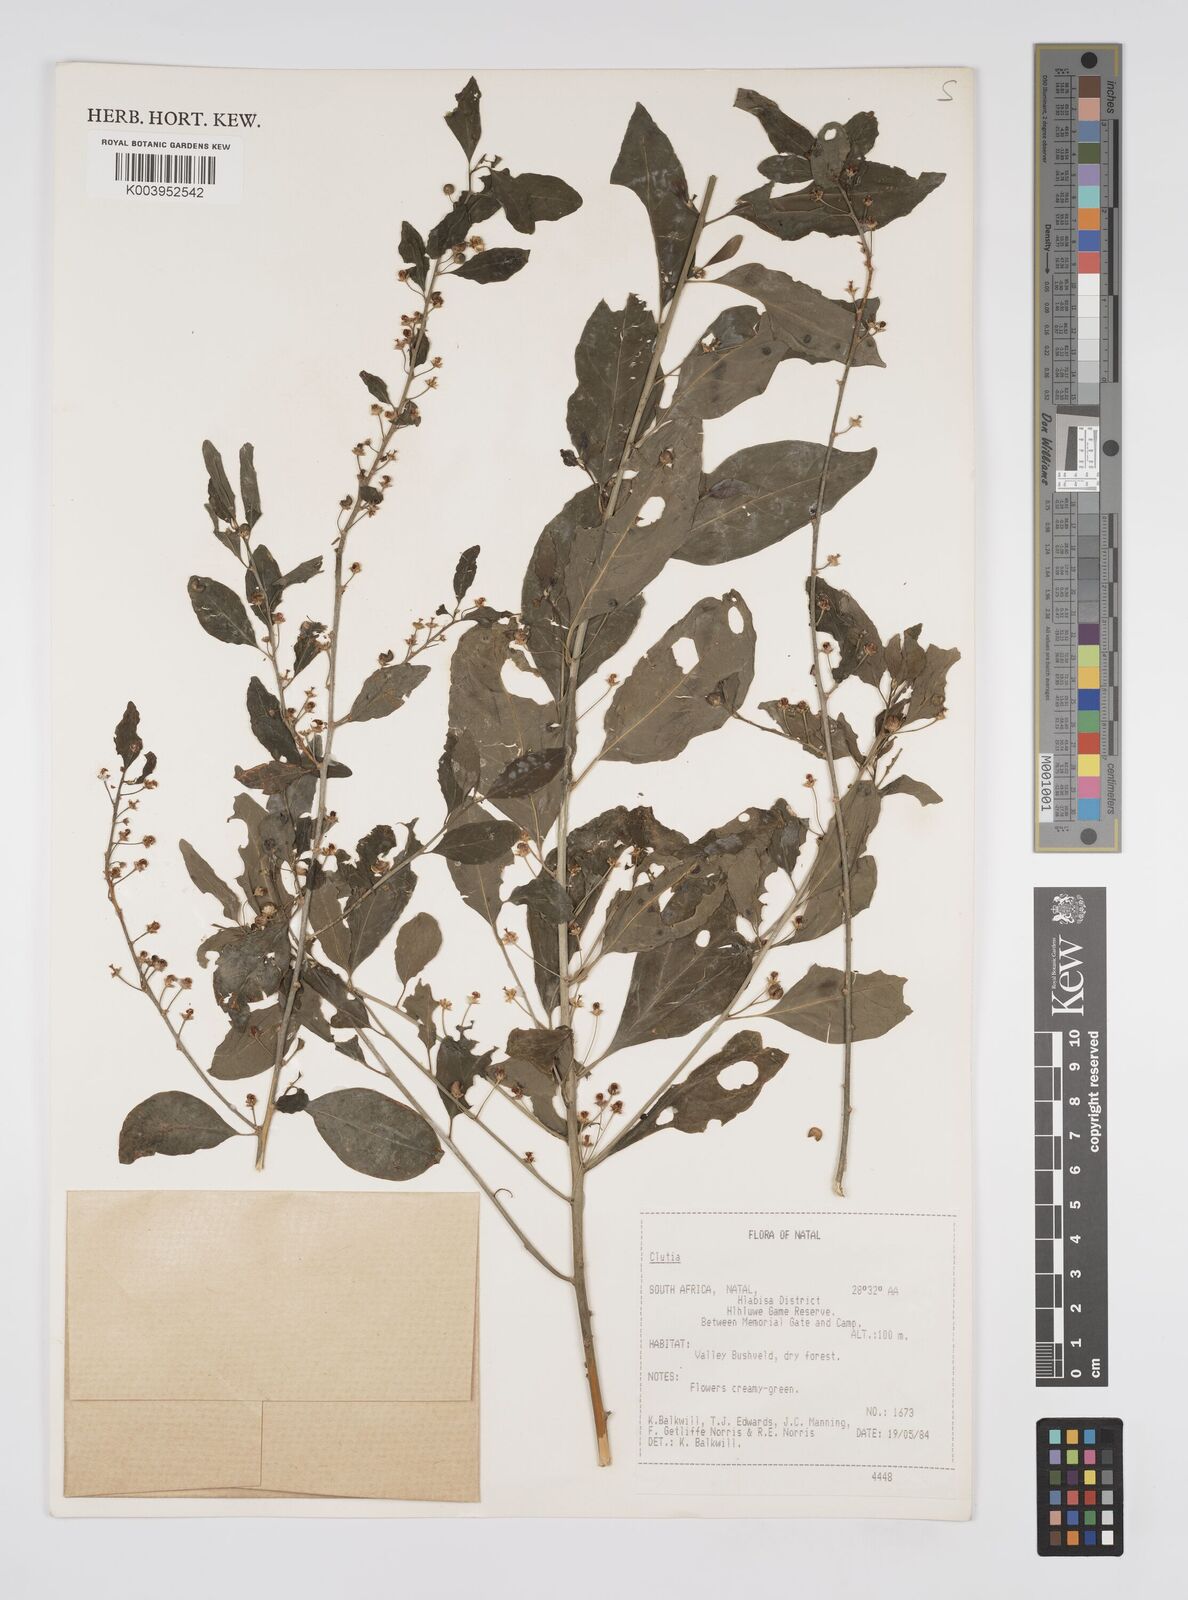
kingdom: Plantae
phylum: Tracheophyta
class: Magnoliopsida
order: Malpighiales
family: Peraceae
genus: Clutia
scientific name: Clutia
